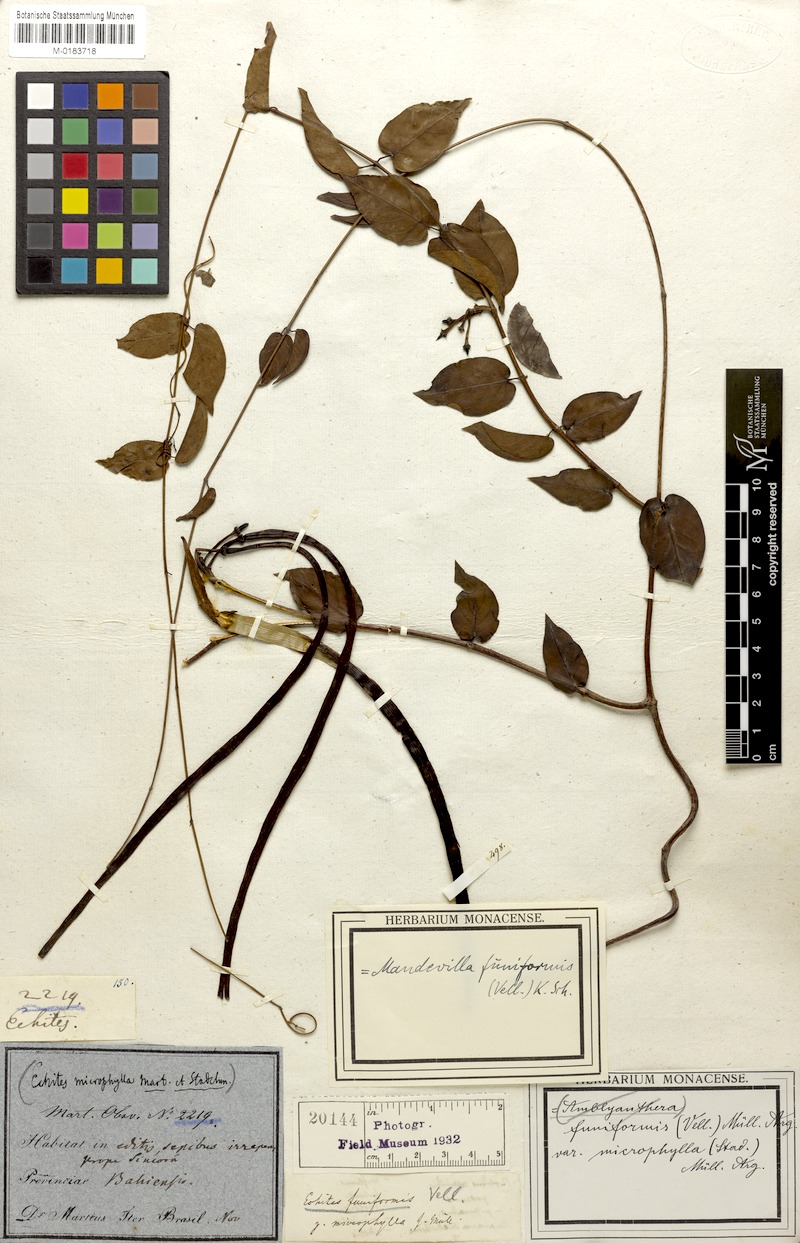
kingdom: Plantae
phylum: Tracheophyta
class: Magnoliopsida
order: Gentianales
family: Apocynaceae
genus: Mandevilla
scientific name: Mandevilla funiformis
